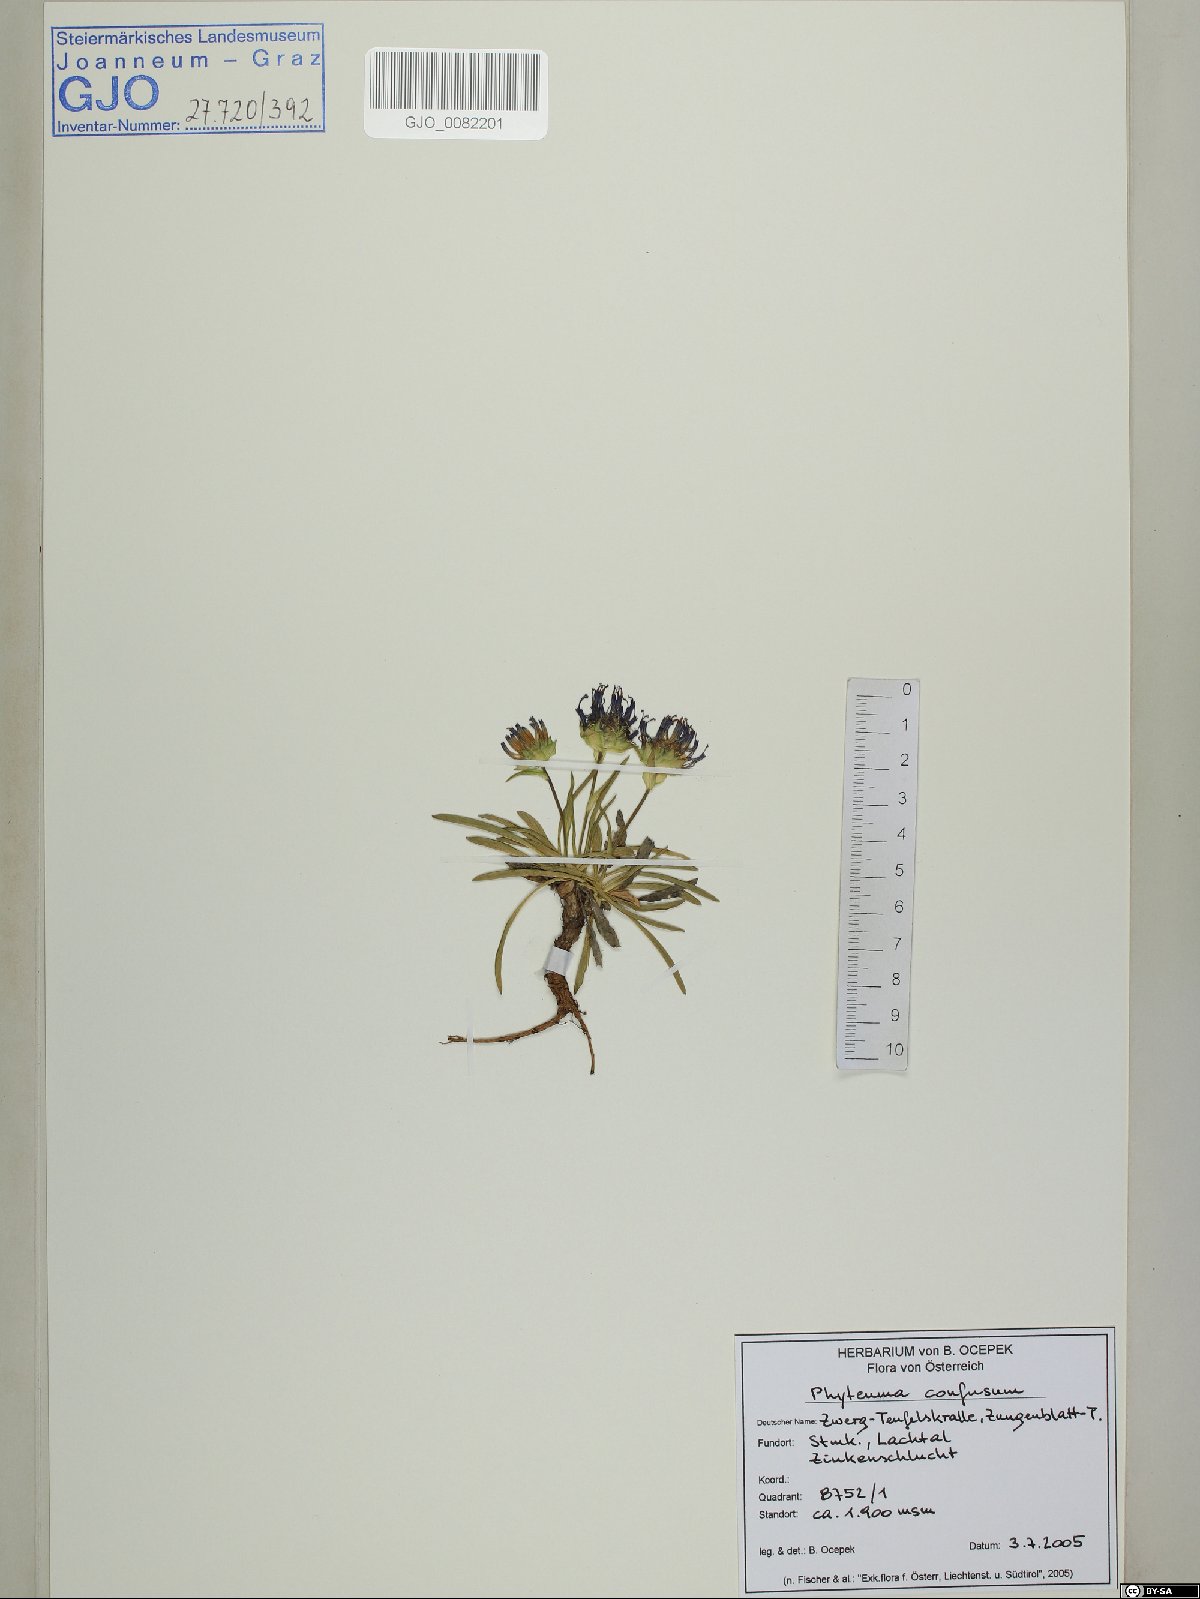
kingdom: Plantae
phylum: Tracheophyta
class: Magnoliopsida
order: Asterales
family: Campanulaceae
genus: Phyteuma
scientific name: Phyteuma confusum
